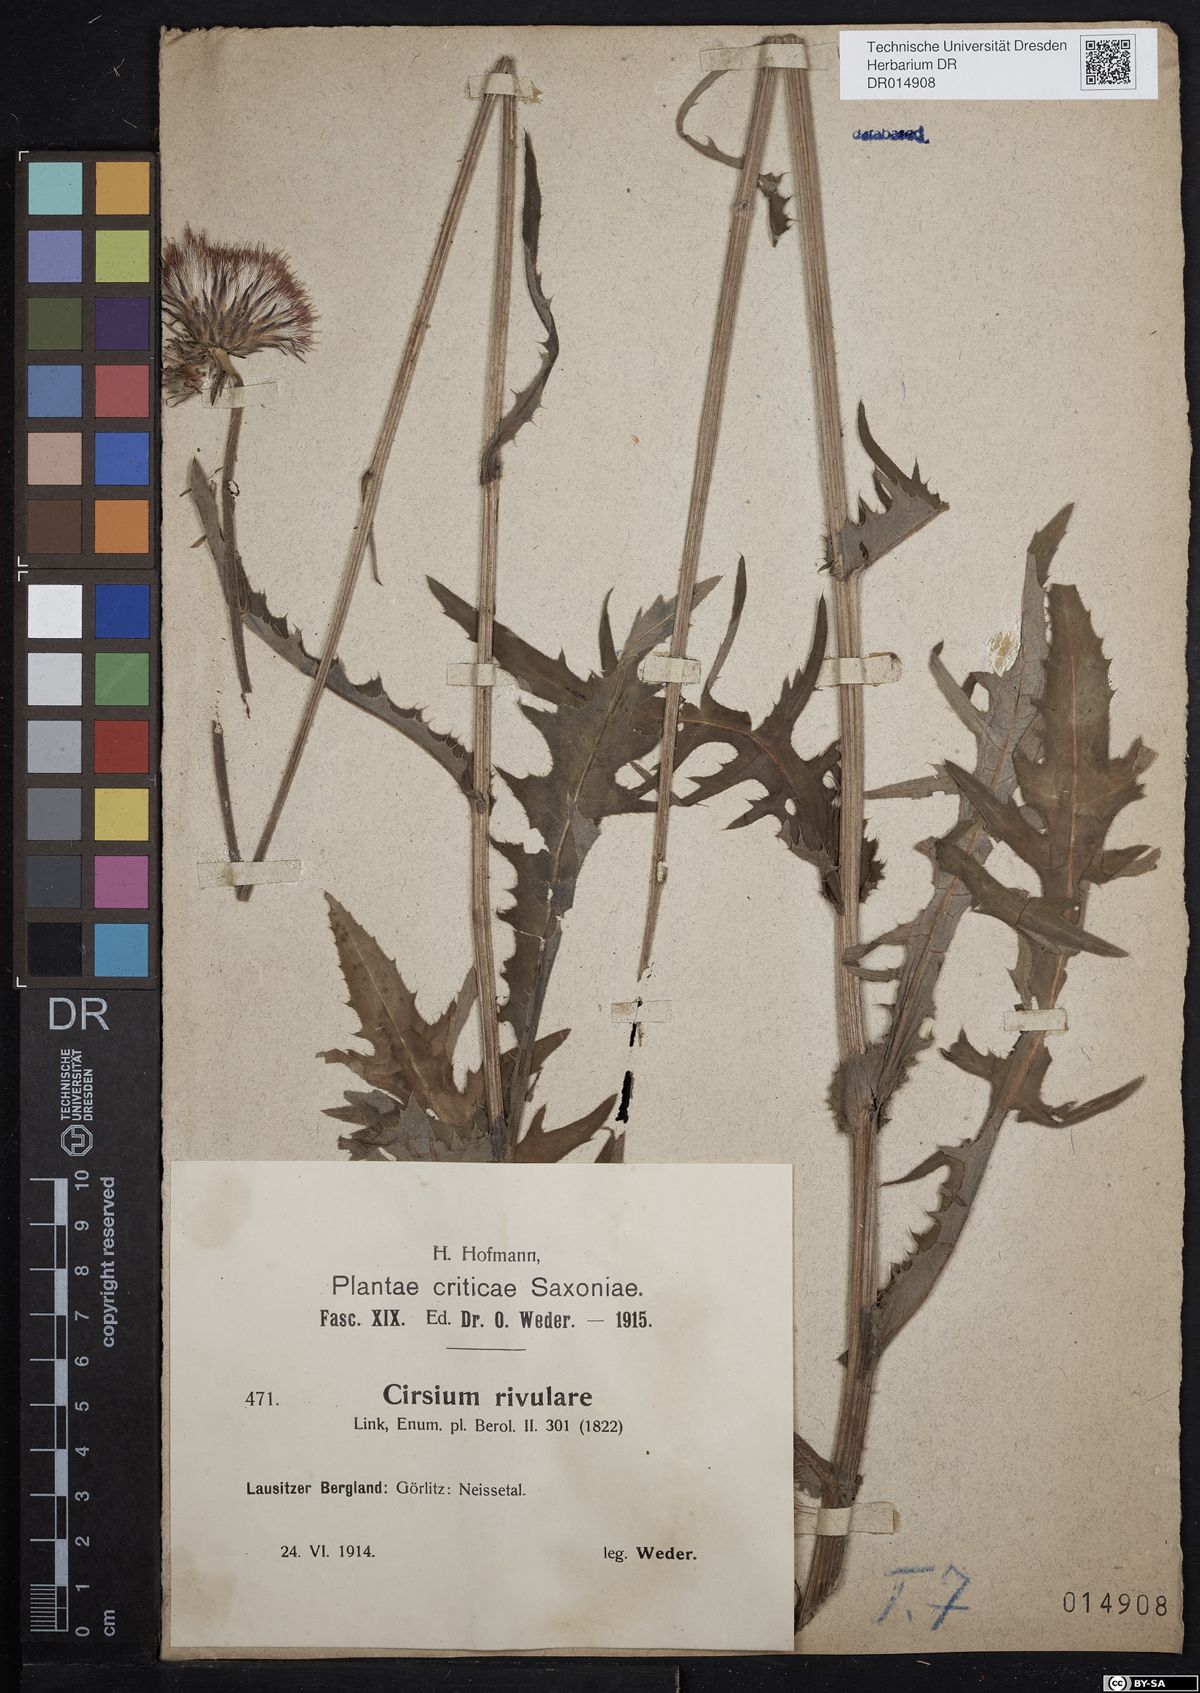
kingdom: Plantae
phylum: Tracheophyta
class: Magnoliopsida
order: Asterales
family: Asteraceae
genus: Cirsium
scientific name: Cirsium rivulare
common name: Brook thistle
